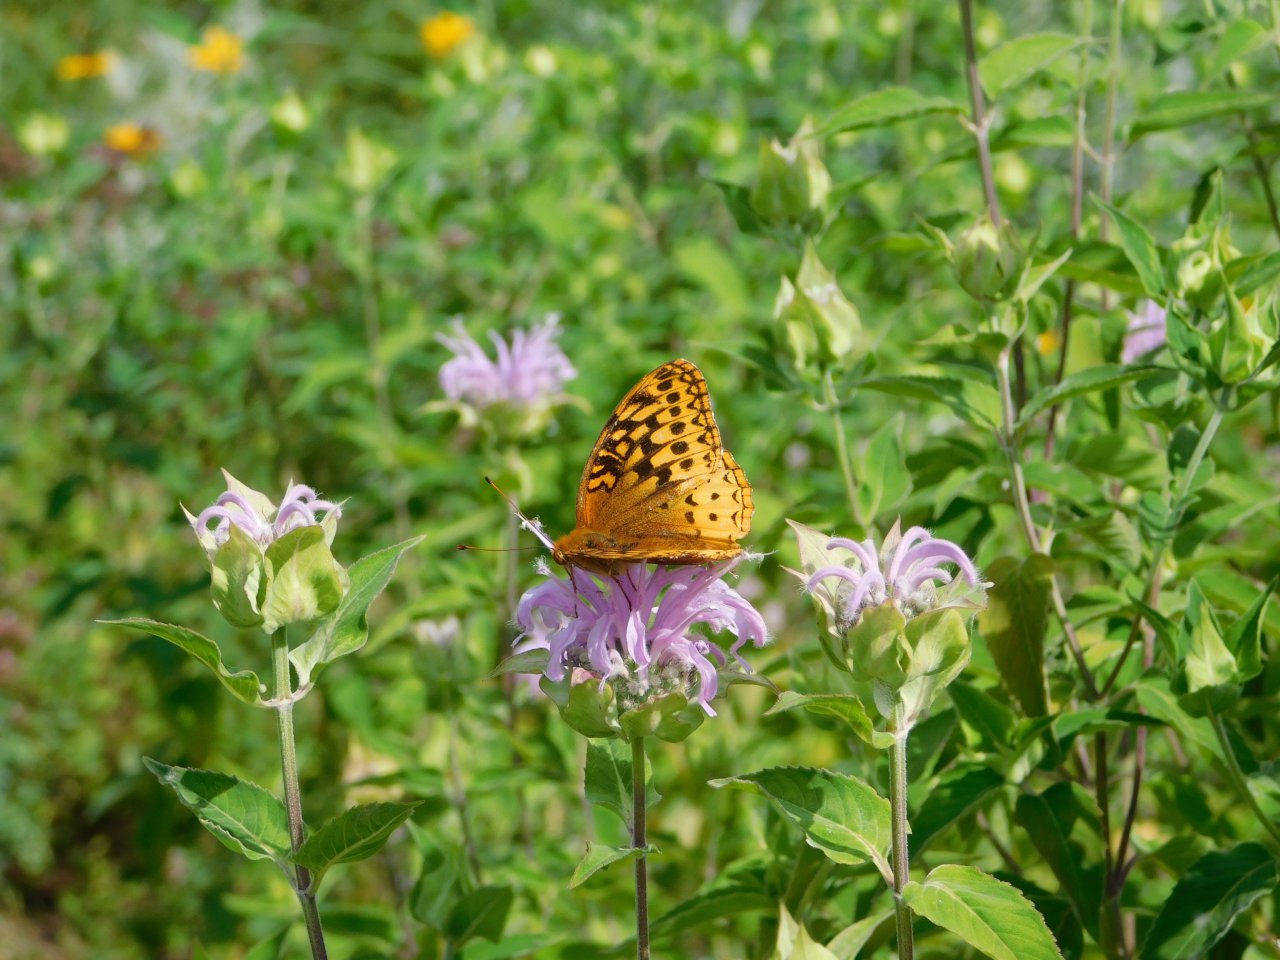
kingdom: Animalia
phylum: Arthropoda
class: Insecta
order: Lepidoptera
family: Nymphalidae
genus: Speyeria
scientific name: Speyeria cybele
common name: Great Spangled Fritillary
